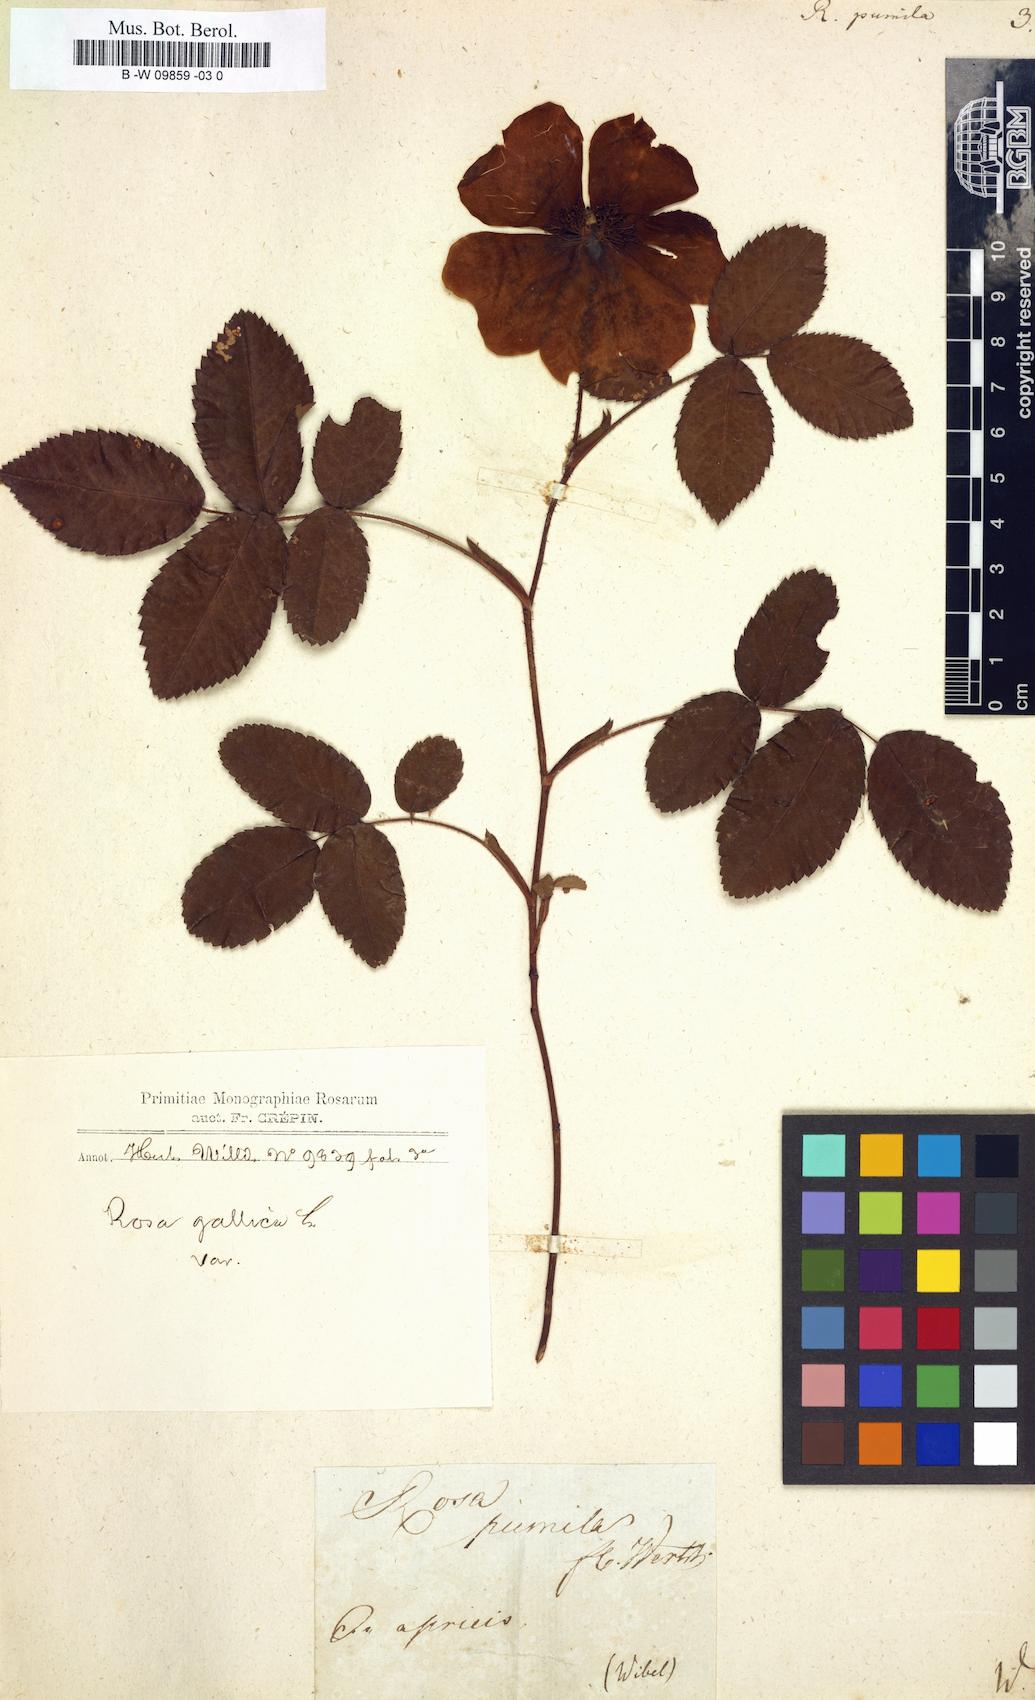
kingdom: Plantae
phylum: Tracheophyta
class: Magnoliopsida
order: Rosales
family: Rosaceae
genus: Rosa
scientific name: Rosa gallica
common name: French rose
